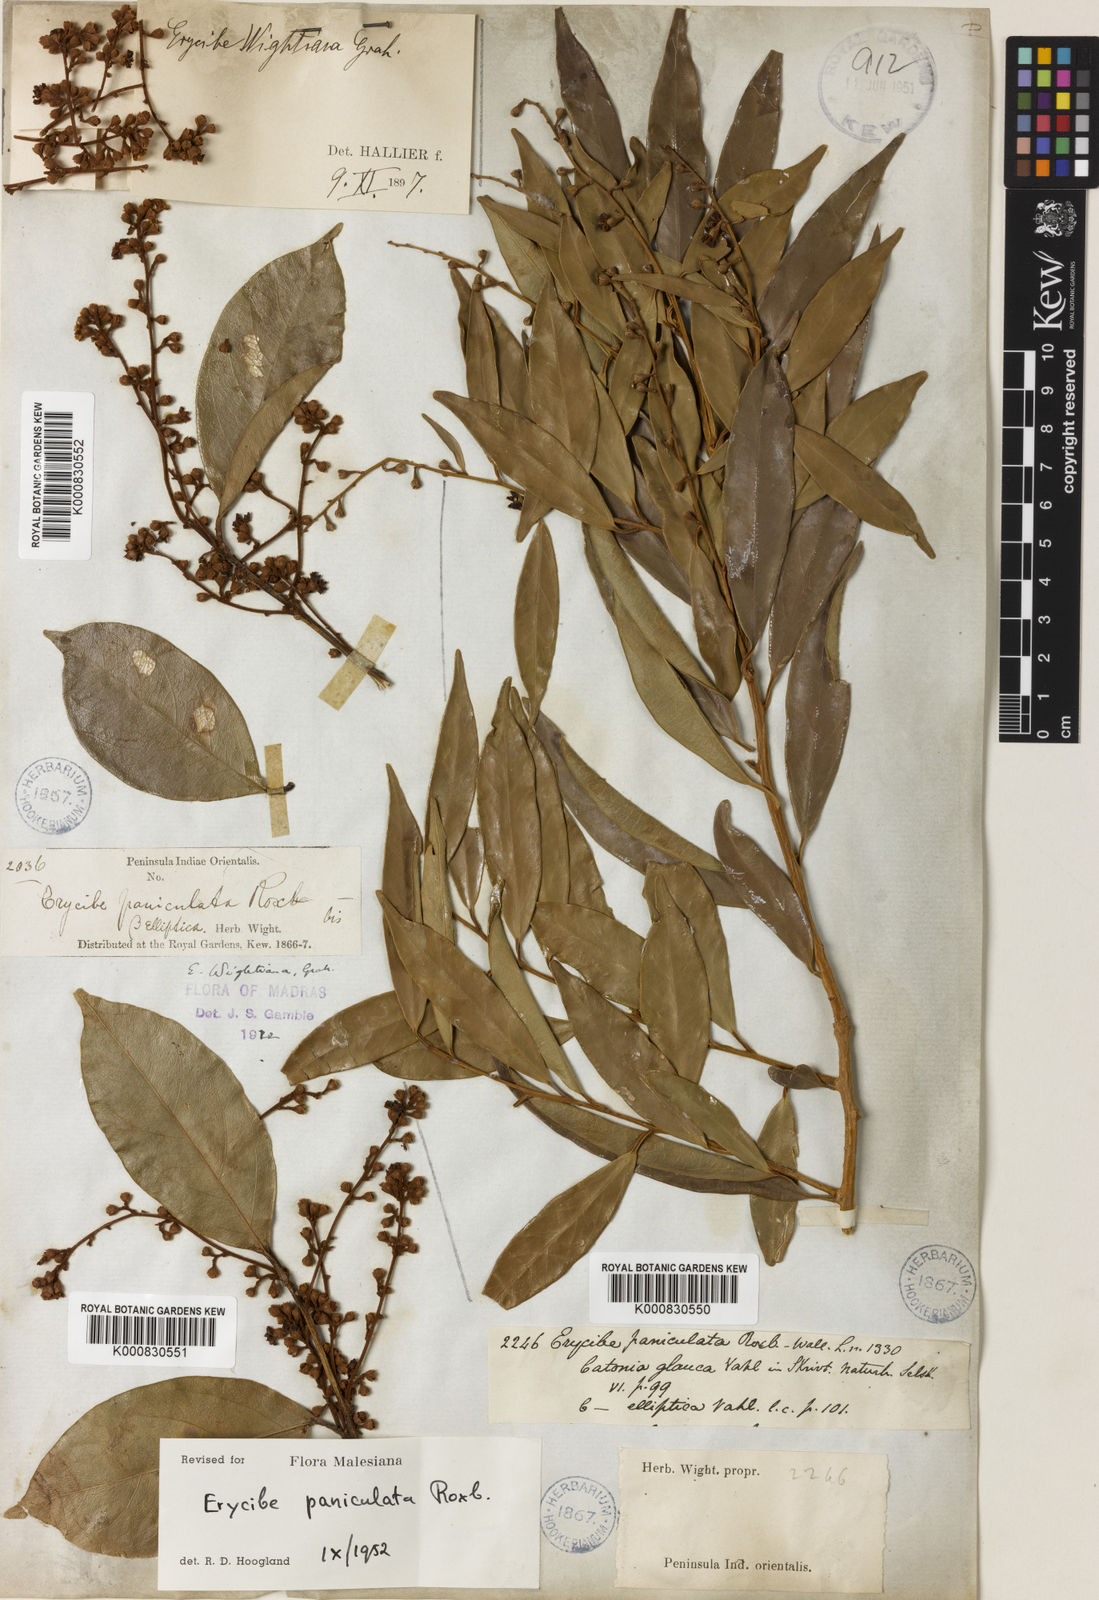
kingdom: Plantae
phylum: Tracheophyta
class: Magnoliopsida
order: Solanales
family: Convolvulaceae
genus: Erycibe
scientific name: Erycibe paniculata
